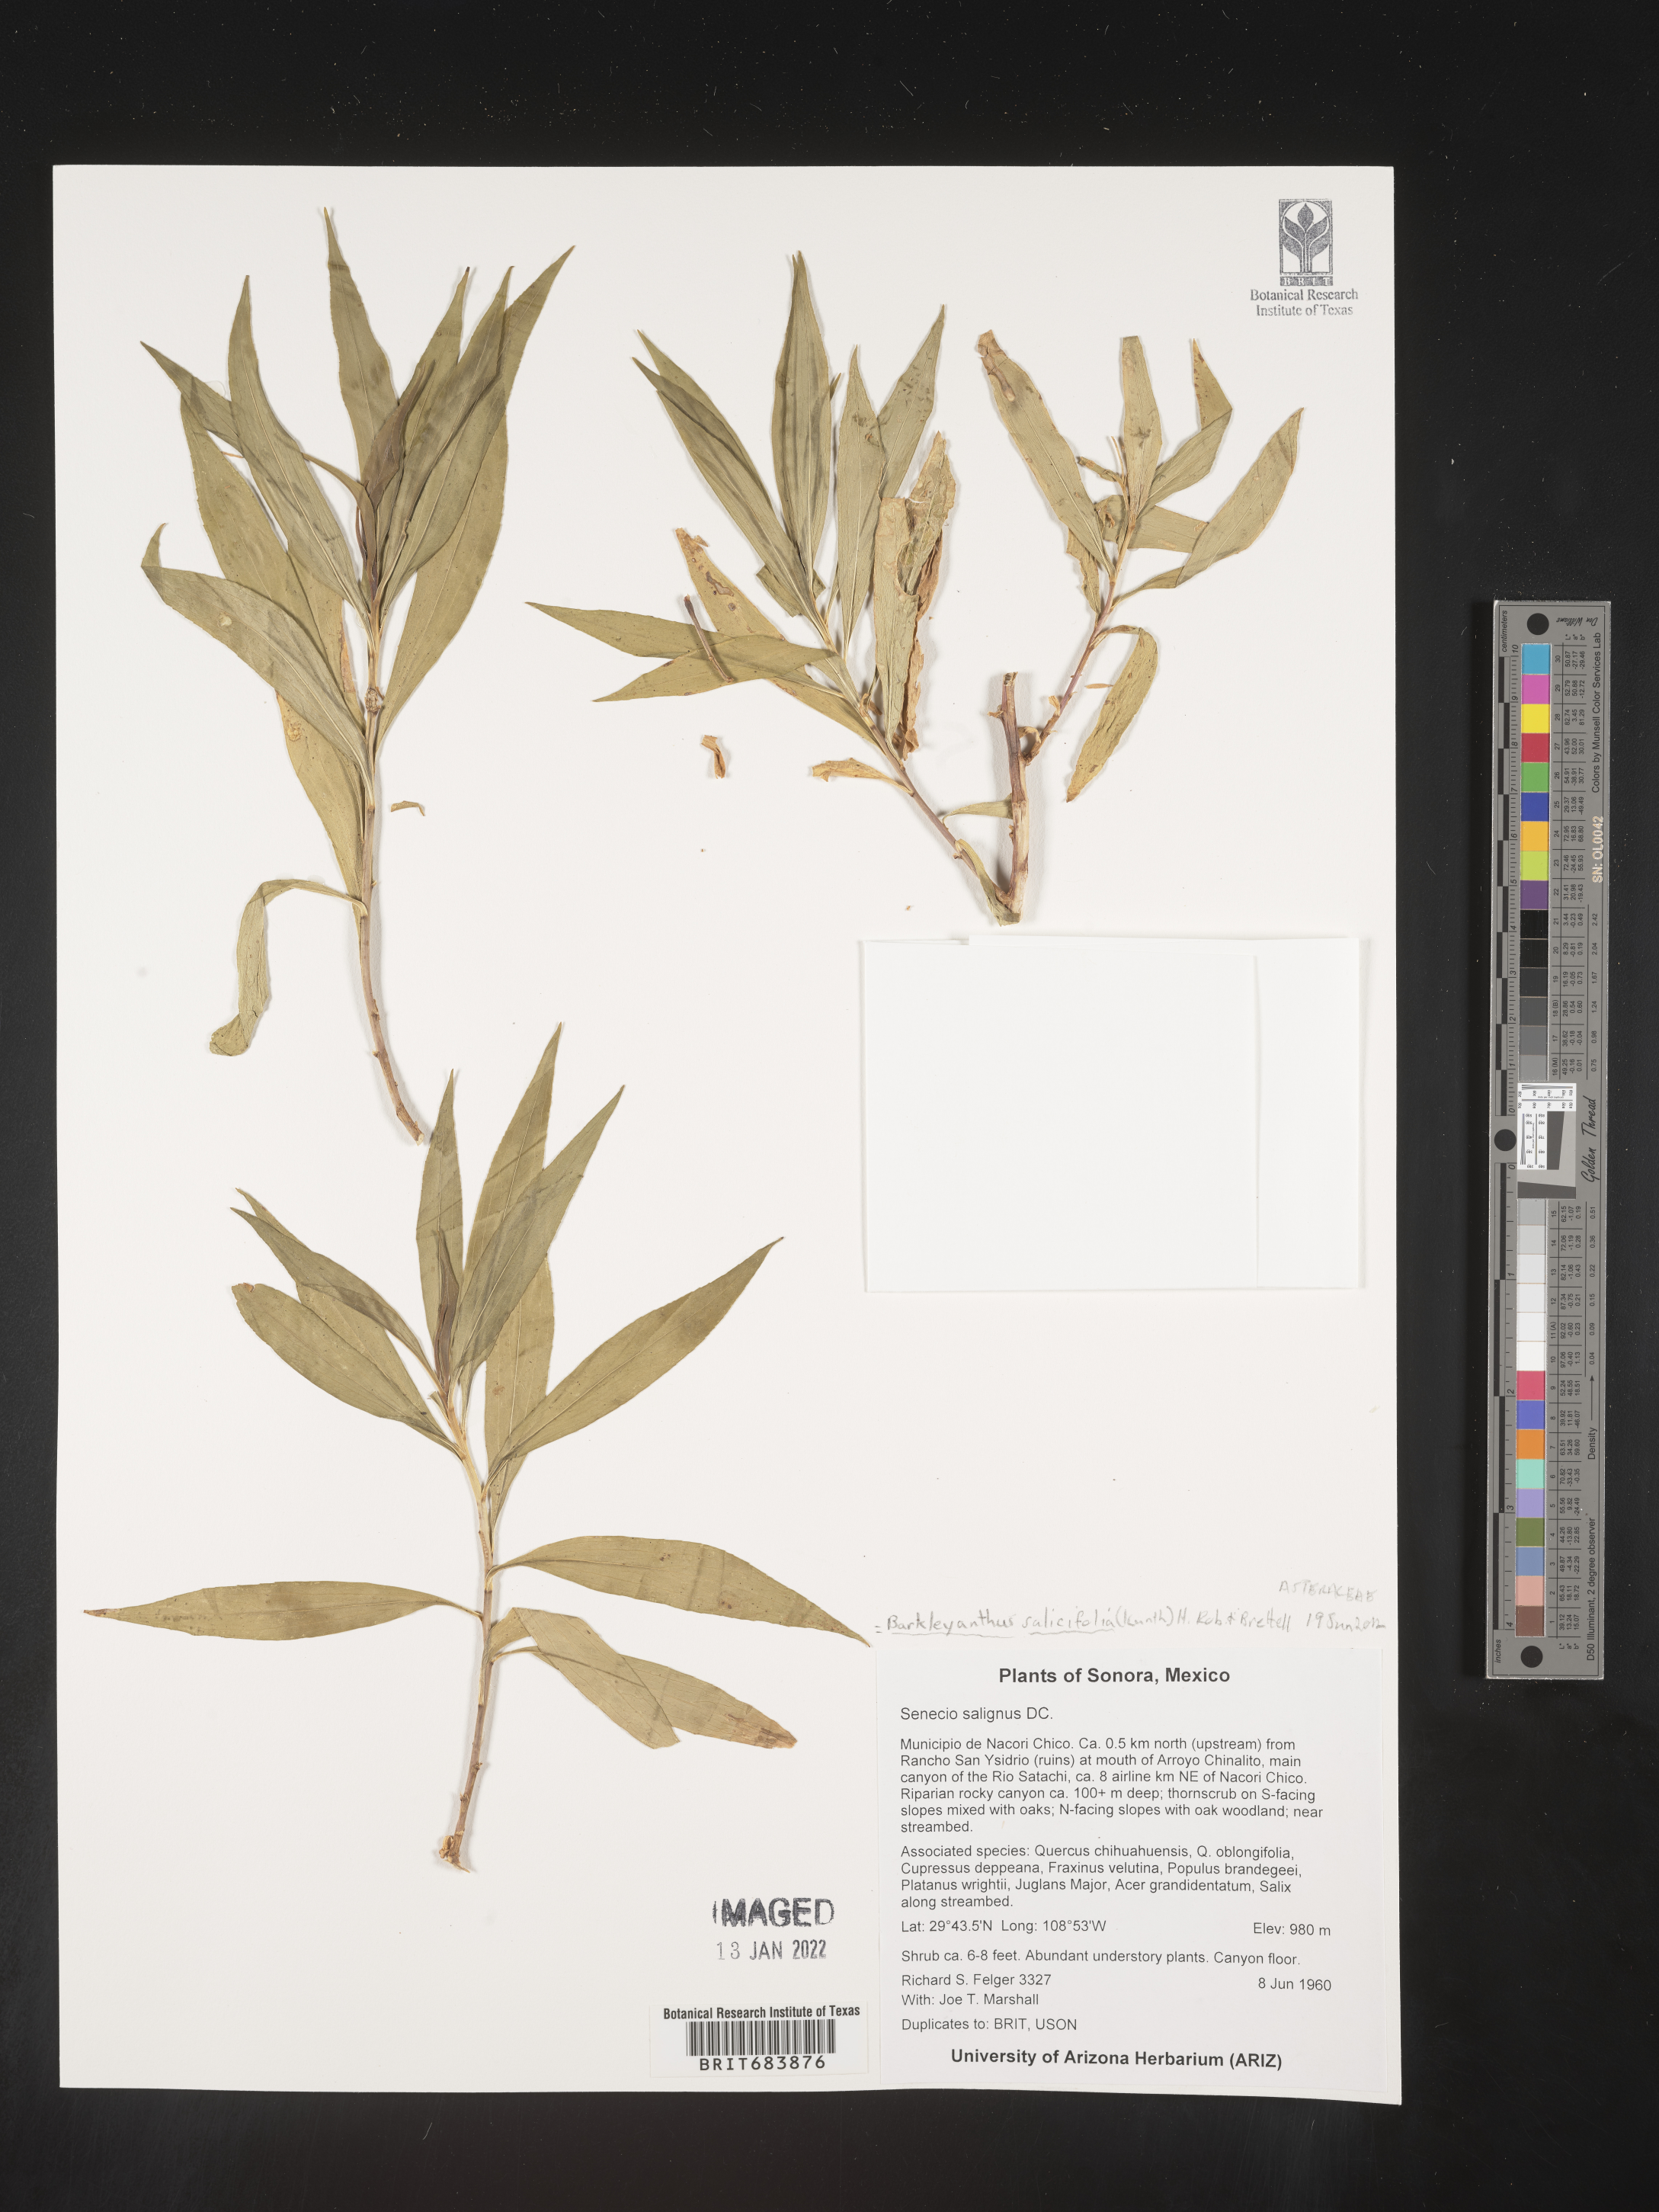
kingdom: Plantae
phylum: Tracheophyta
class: Magnoliopsida
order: Asterales
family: Asteraceae
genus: Barkleyanthus
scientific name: Barkleyanthus
